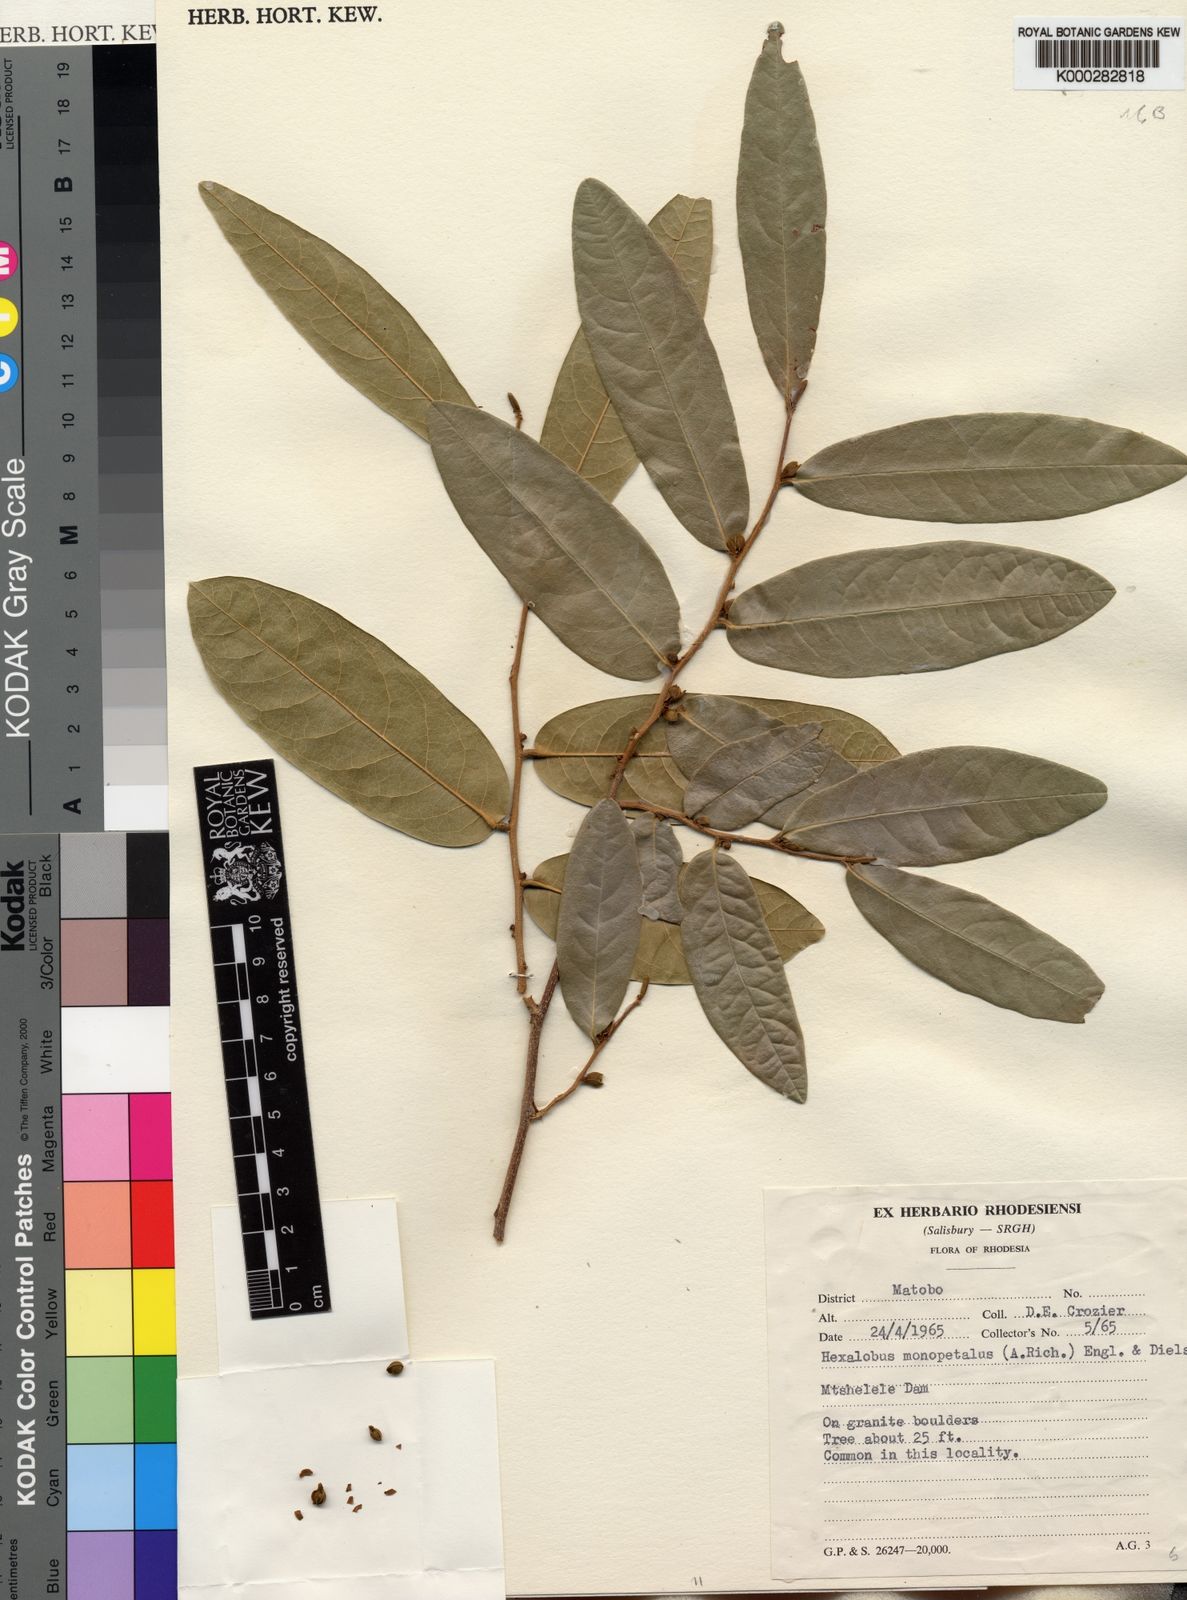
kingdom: Plantae
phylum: Tracheophyta
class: Magnoliopsida
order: Magnoliales
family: Annonaceae
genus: Hexalobus
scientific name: Hexalobus monopetalus
